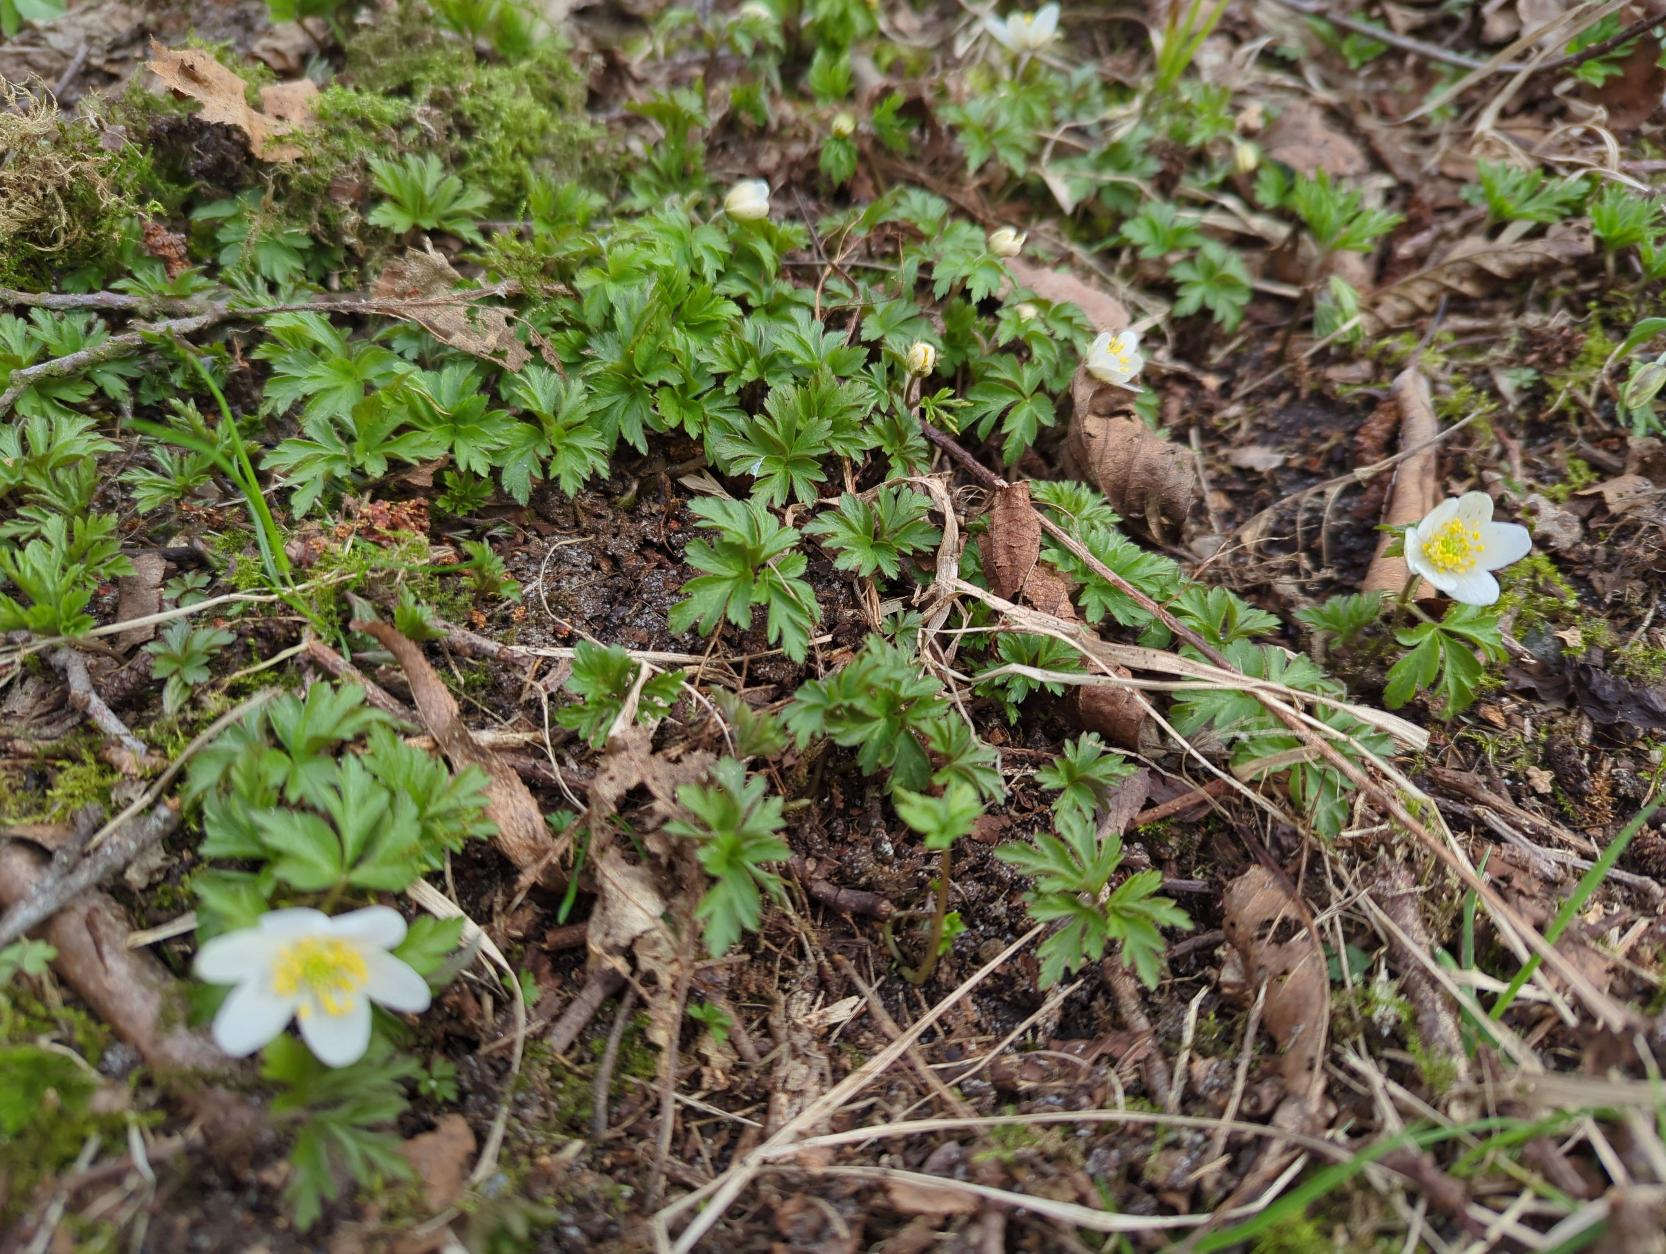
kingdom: Plantae
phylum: Tracheophyta
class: Magnoliopsida
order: Ranunculales
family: Ranunculaceae
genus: Anemone
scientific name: Anemone nemorosa
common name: Hvid anemone
